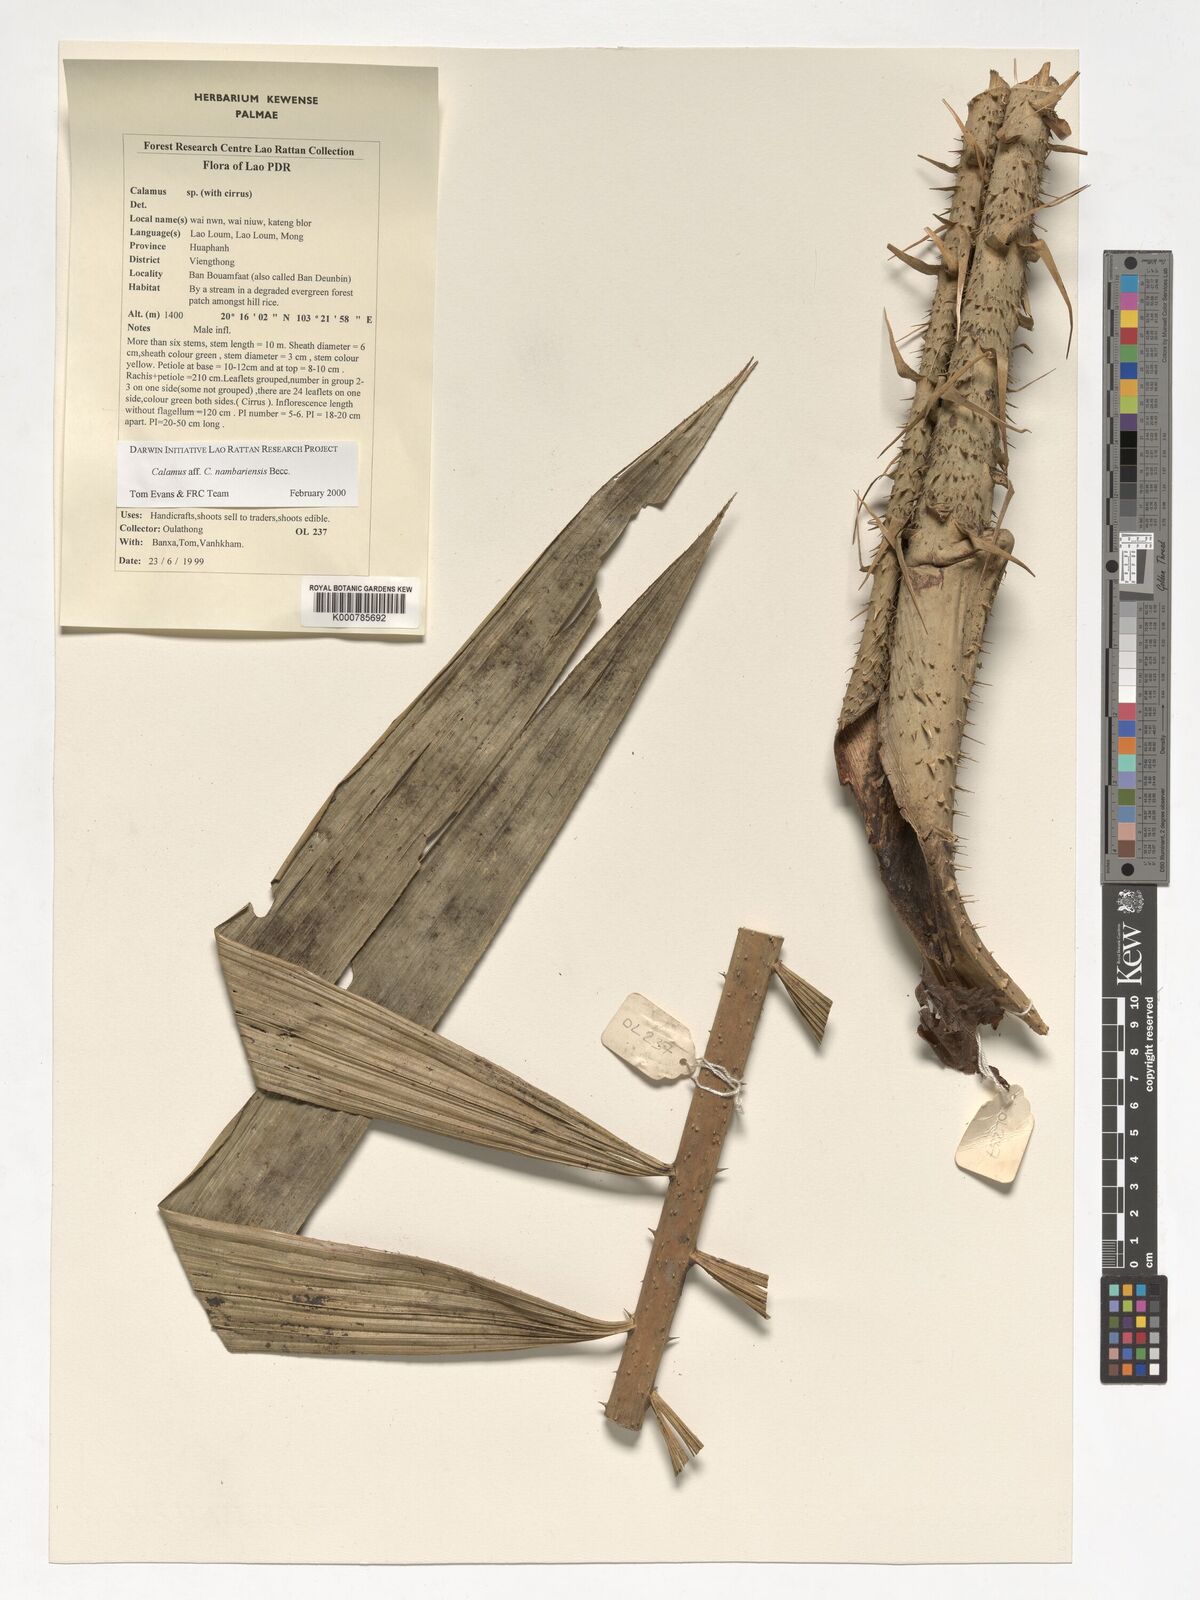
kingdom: Plantae
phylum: Tracheophyta
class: Liliopsida
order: Arecales
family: Arecaceae
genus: Calamus
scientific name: Calamus inermis
